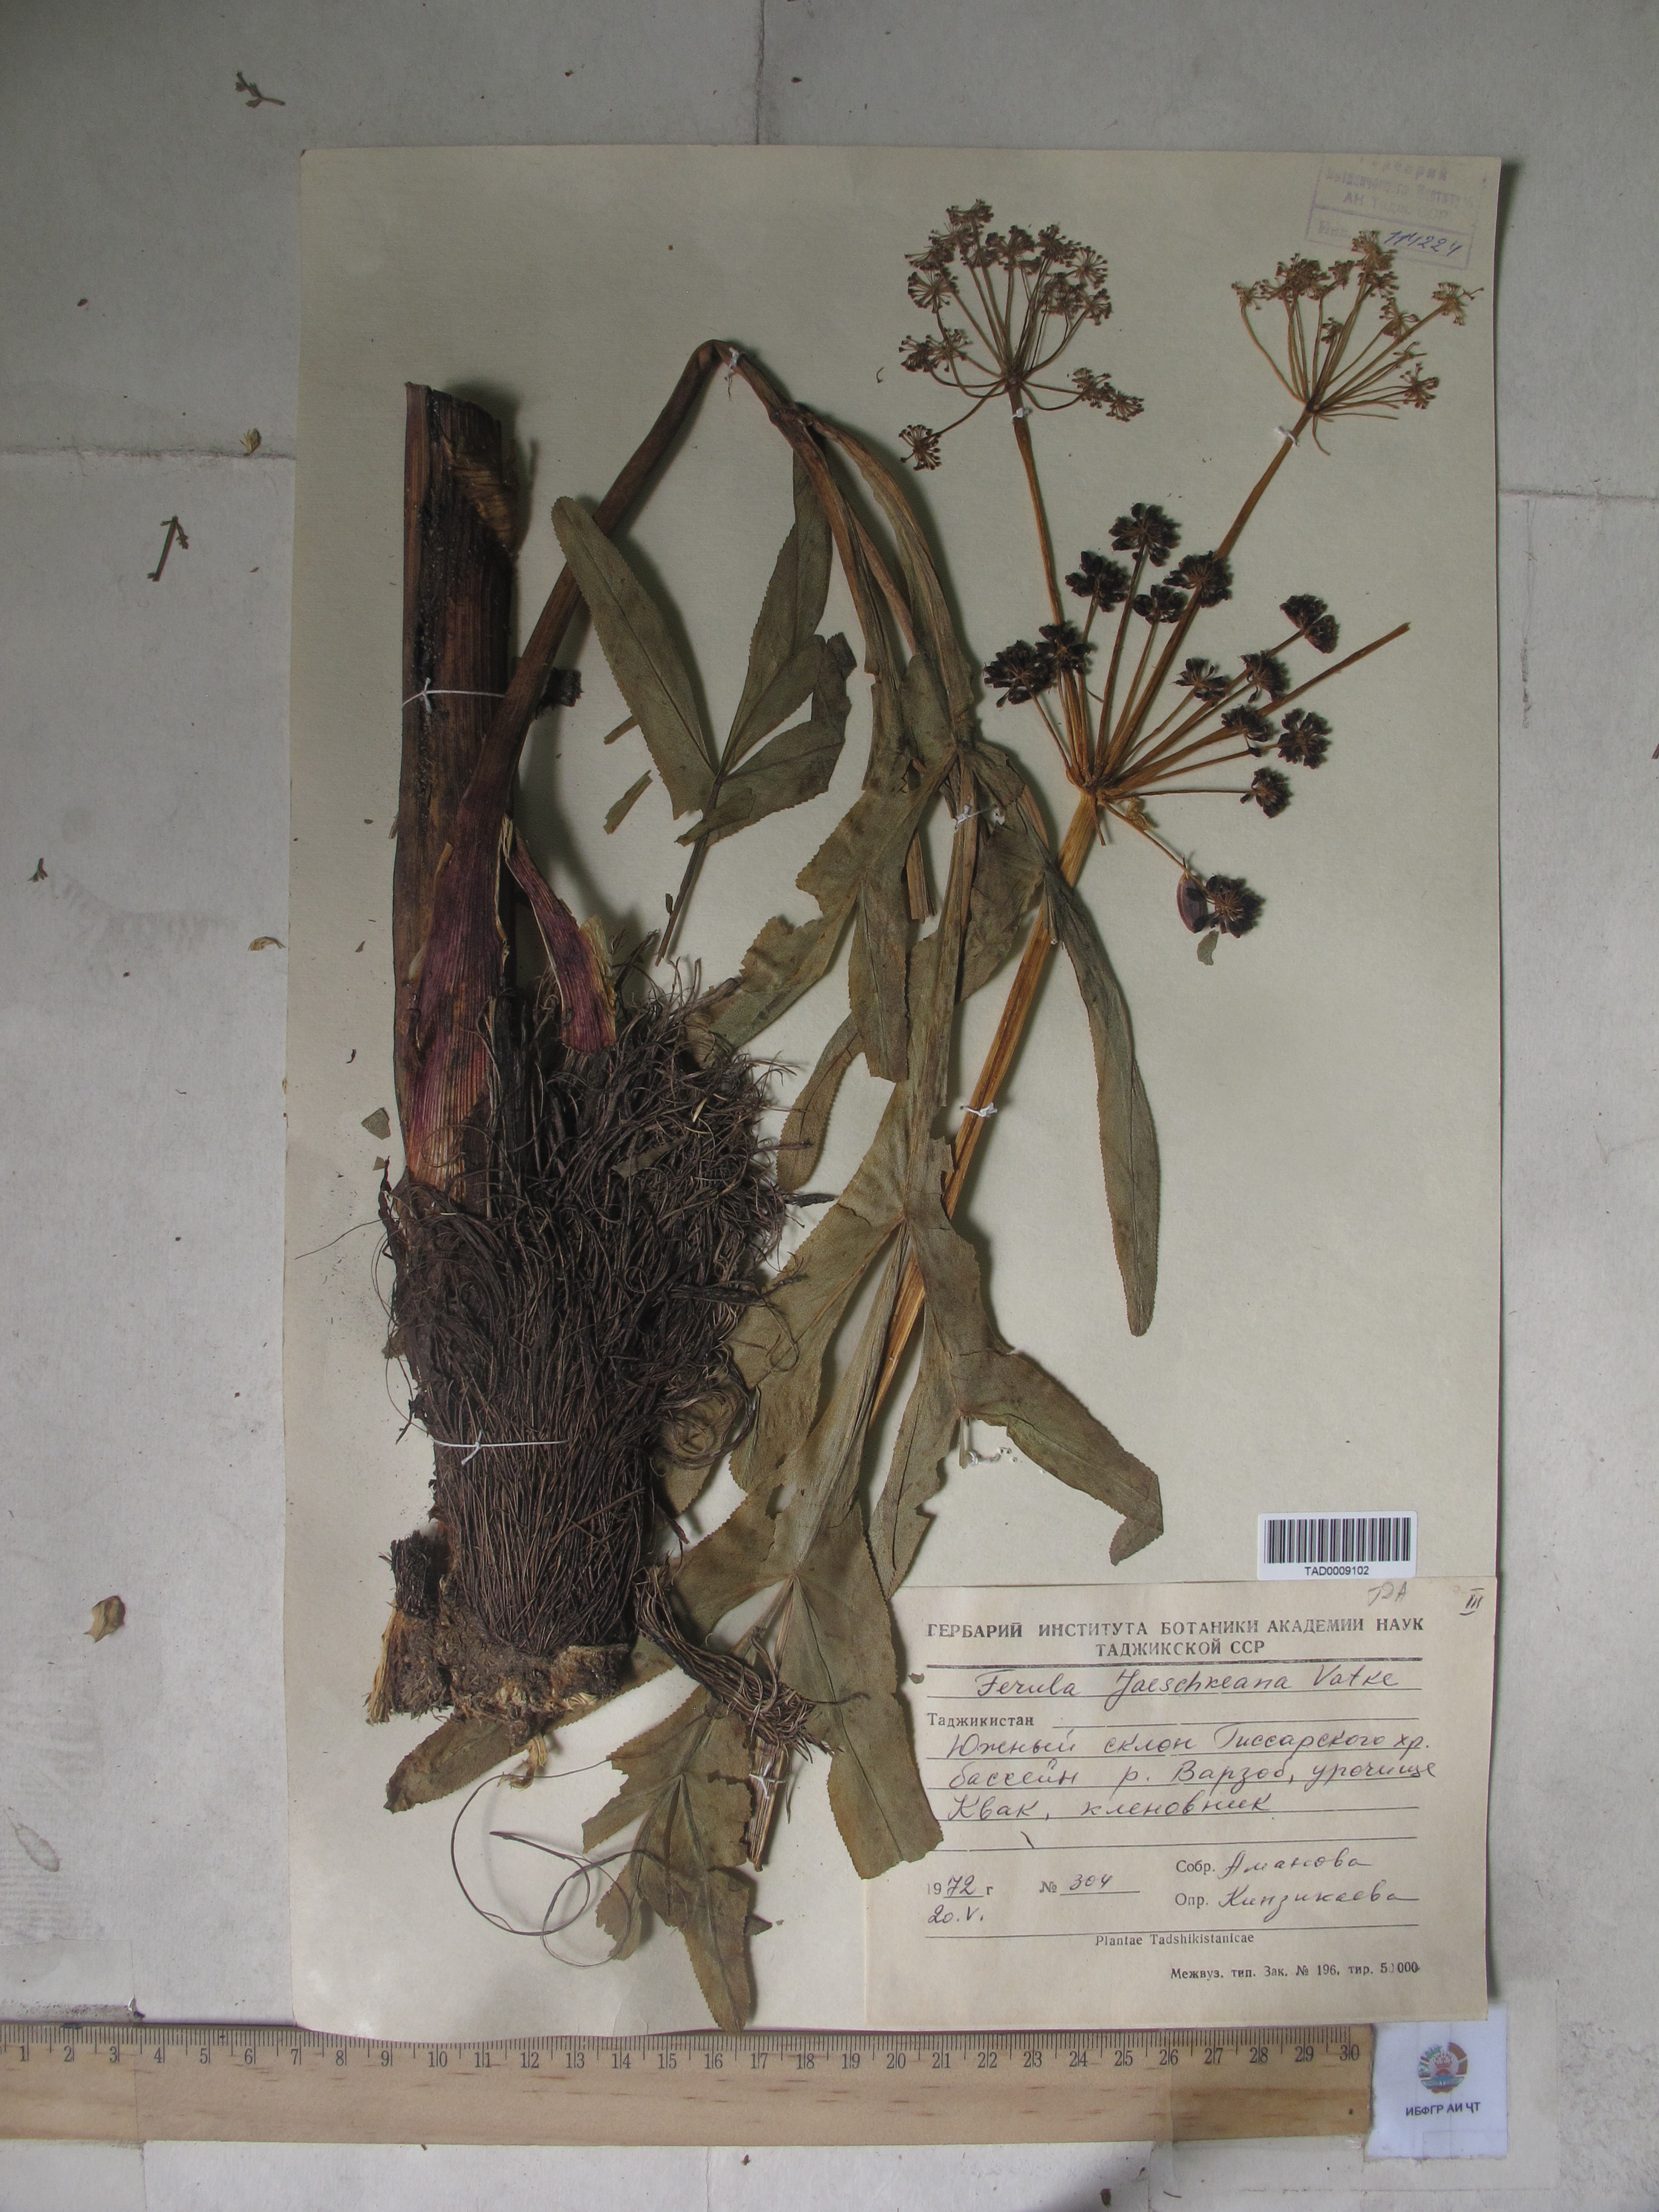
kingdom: Plantae
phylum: Tracheophyta
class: Magnoliopsida
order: Apiales
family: Apiaceae
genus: Ferula
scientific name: Ferula jaeschkeana
